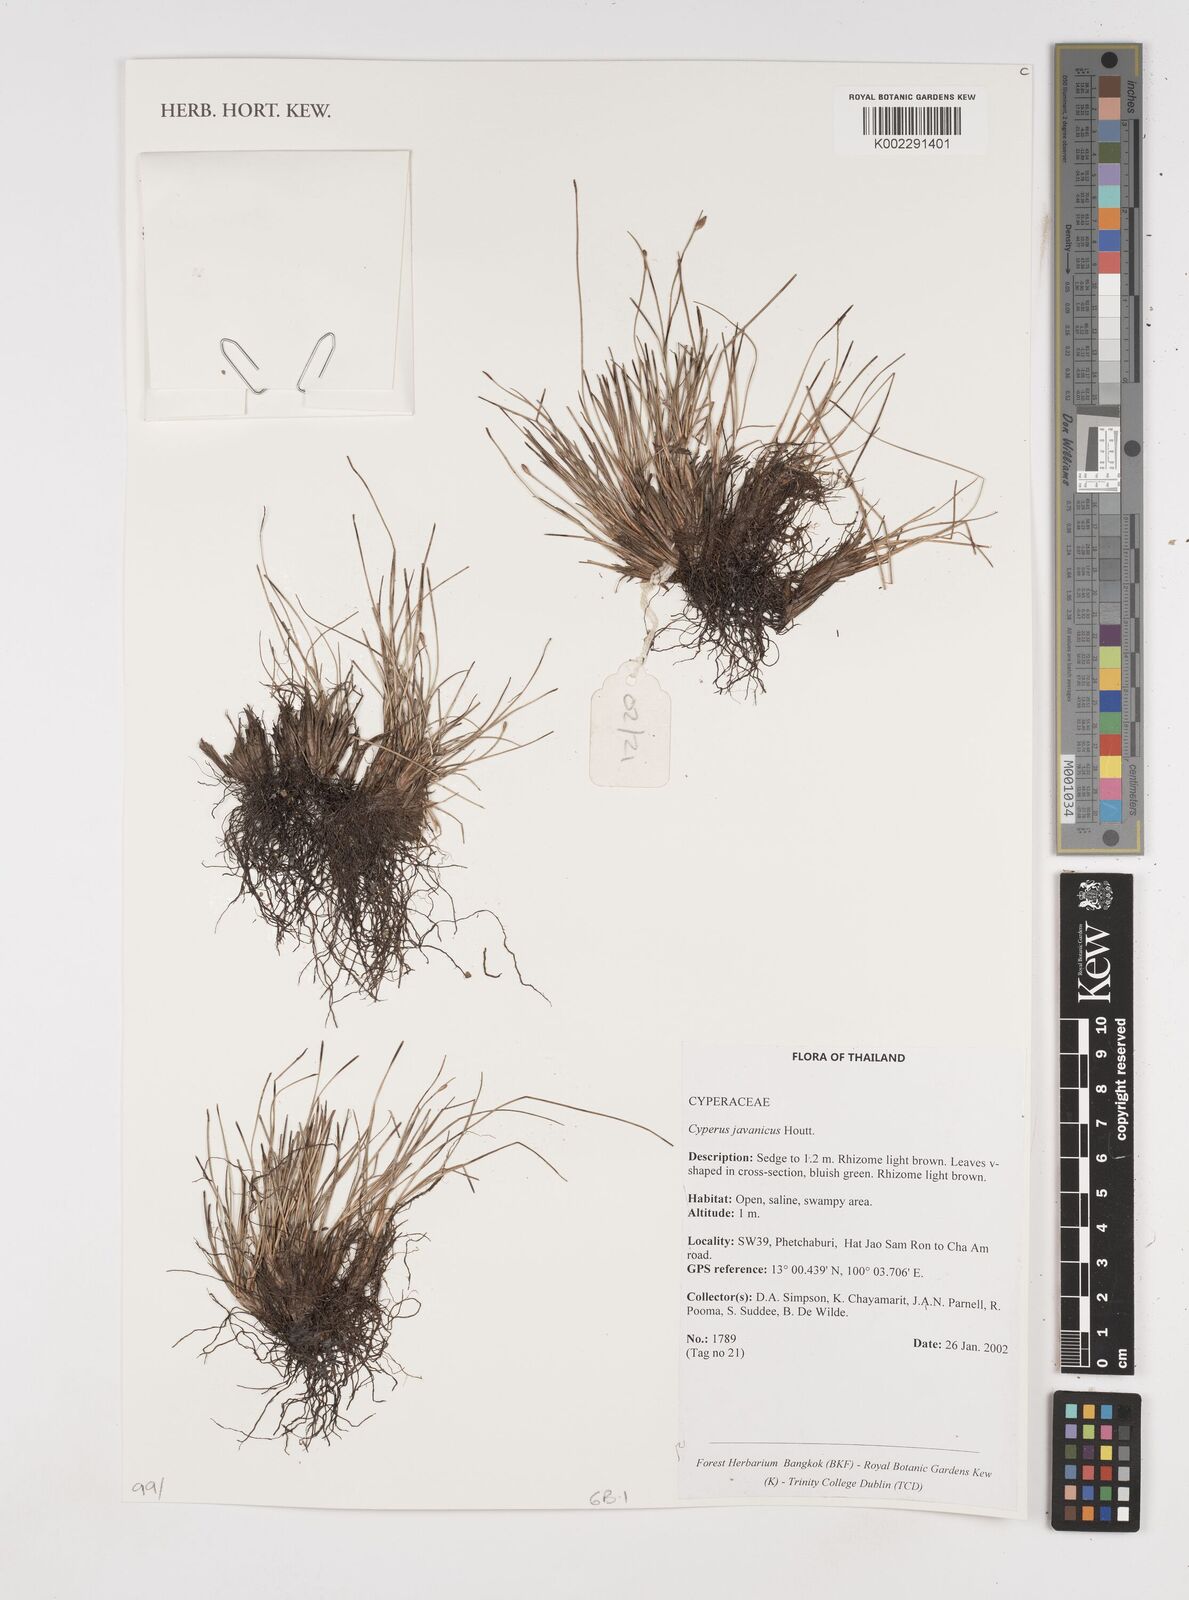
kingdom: Plantae
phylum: Tracheophyta
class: Liliopsida
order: Poales
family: Cyperaceae
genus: Cyperus
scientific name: Cyperus javanicus
